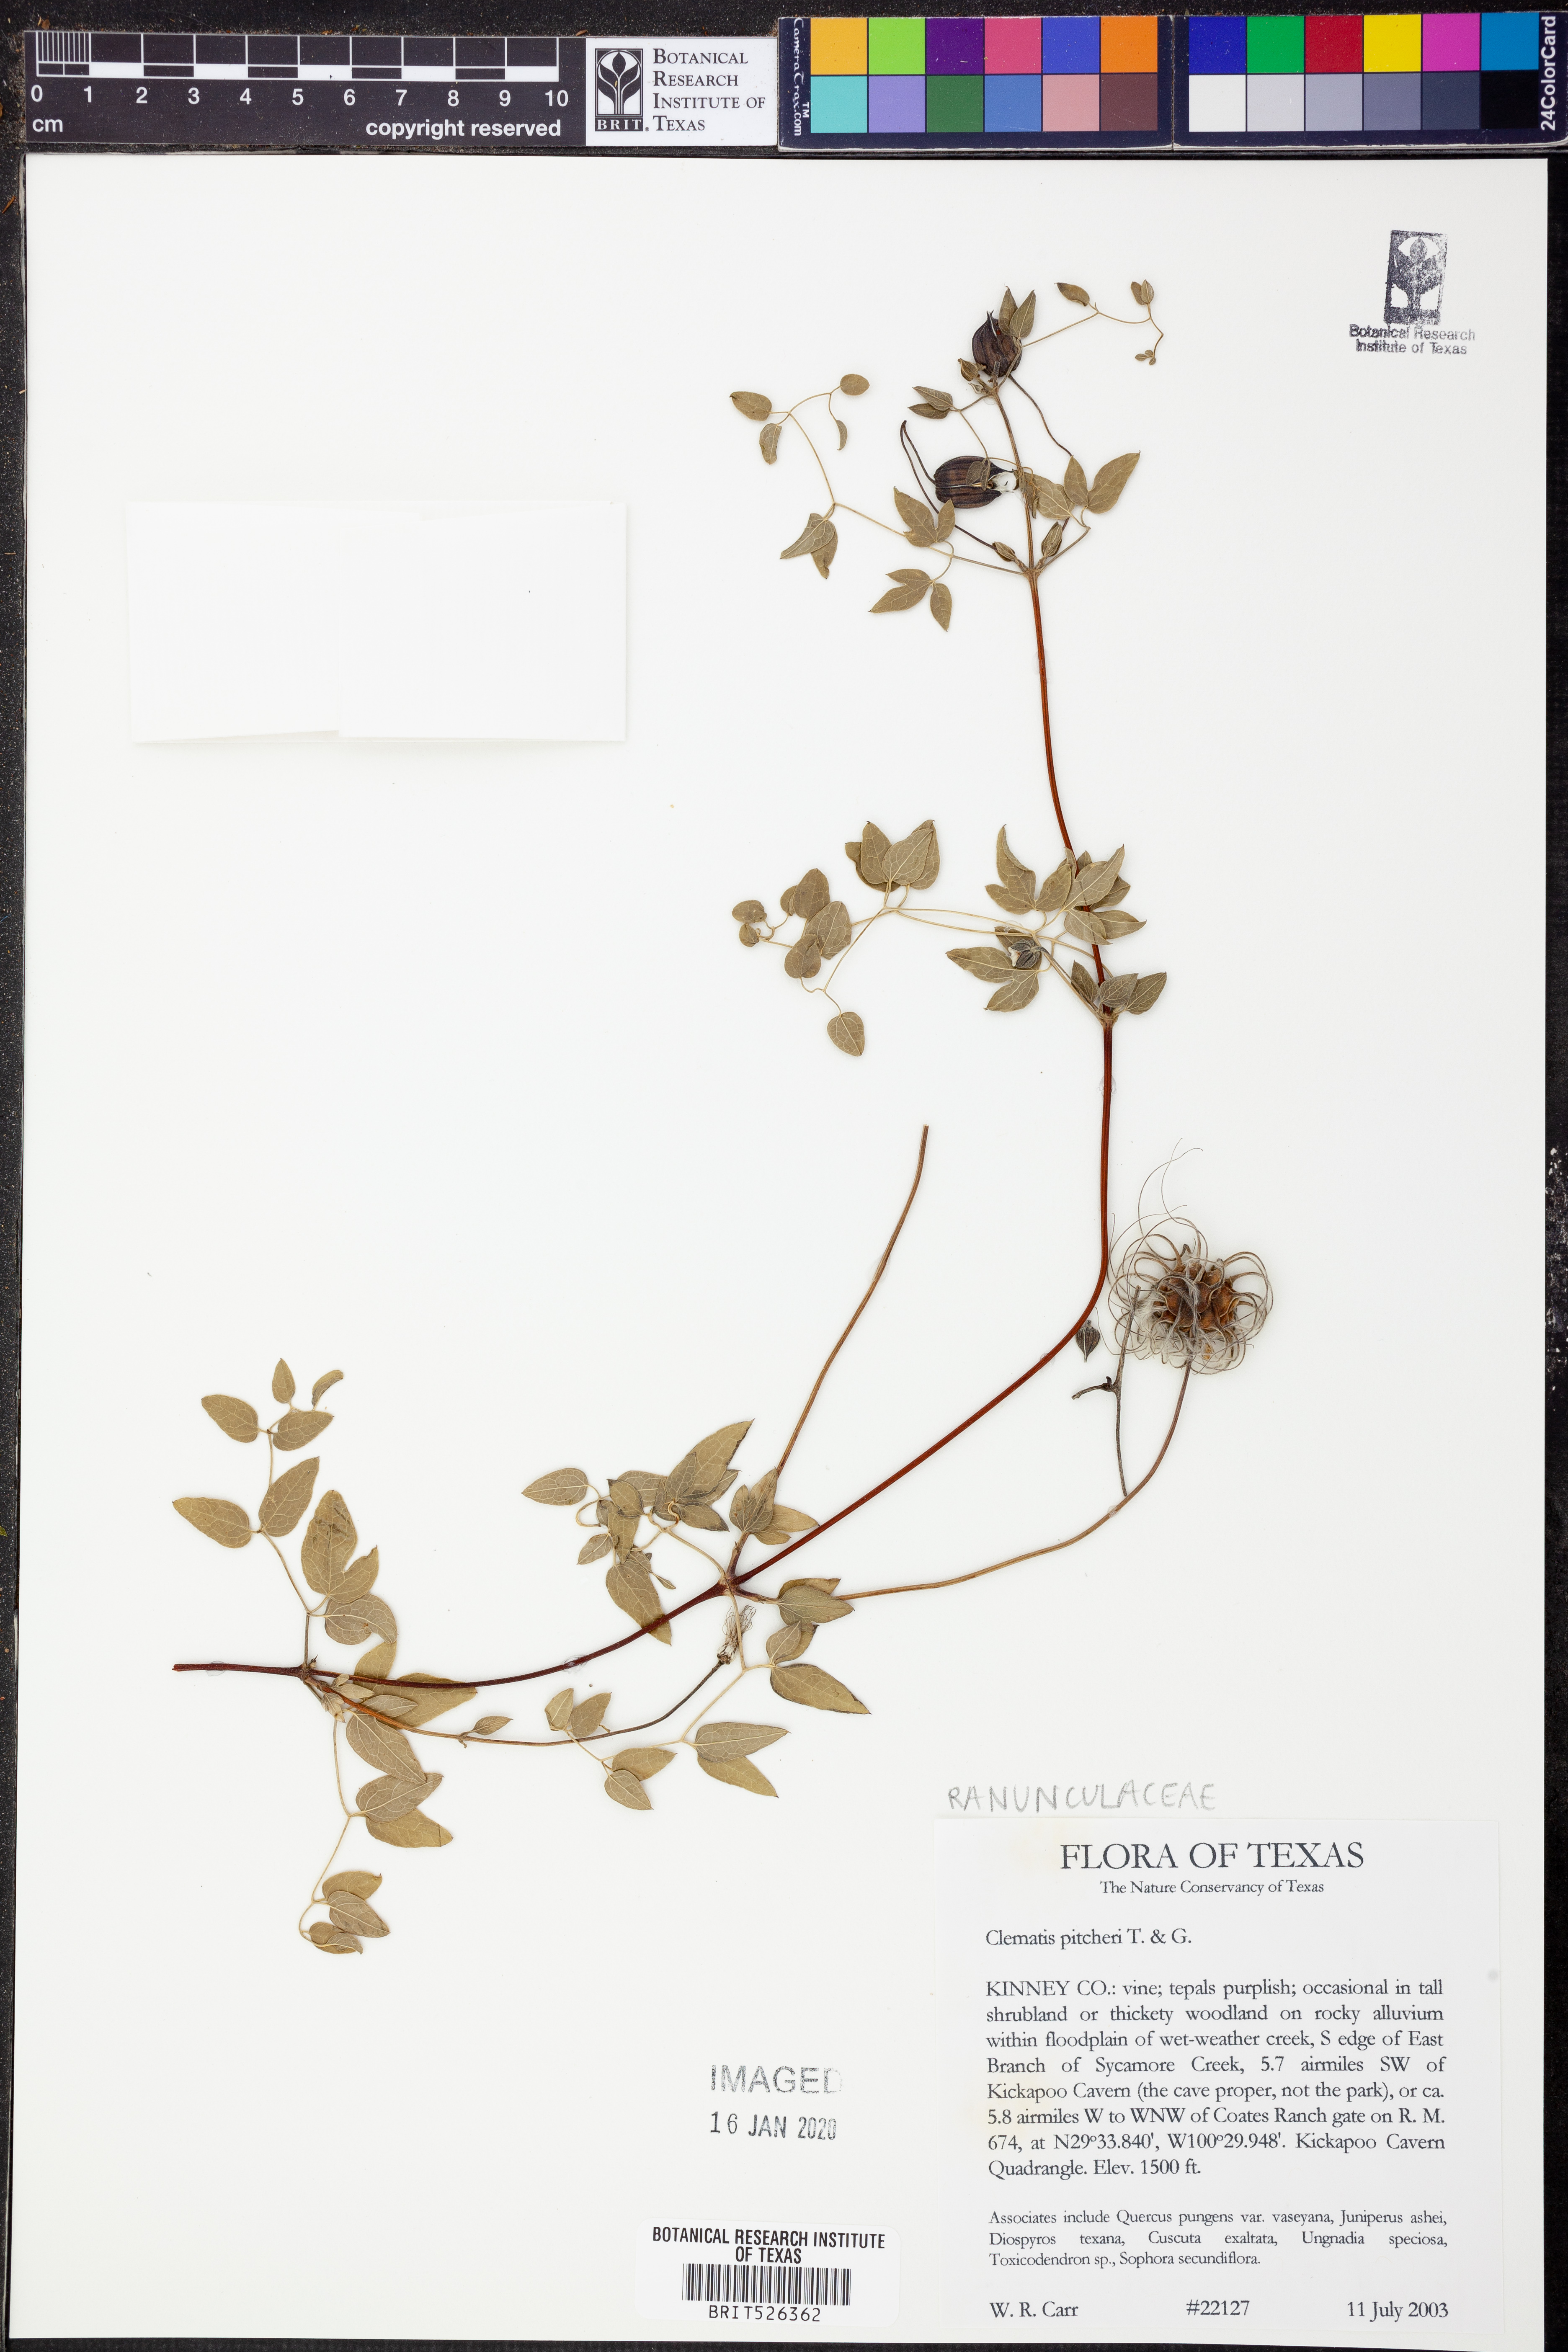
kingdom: Plantae
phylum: Tracheophyta
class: Magnoliopsida
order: Ranunculales
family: Ranunculaceae
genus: Clematis
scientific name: Clematis pitcheri
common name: Bellflower clematis
